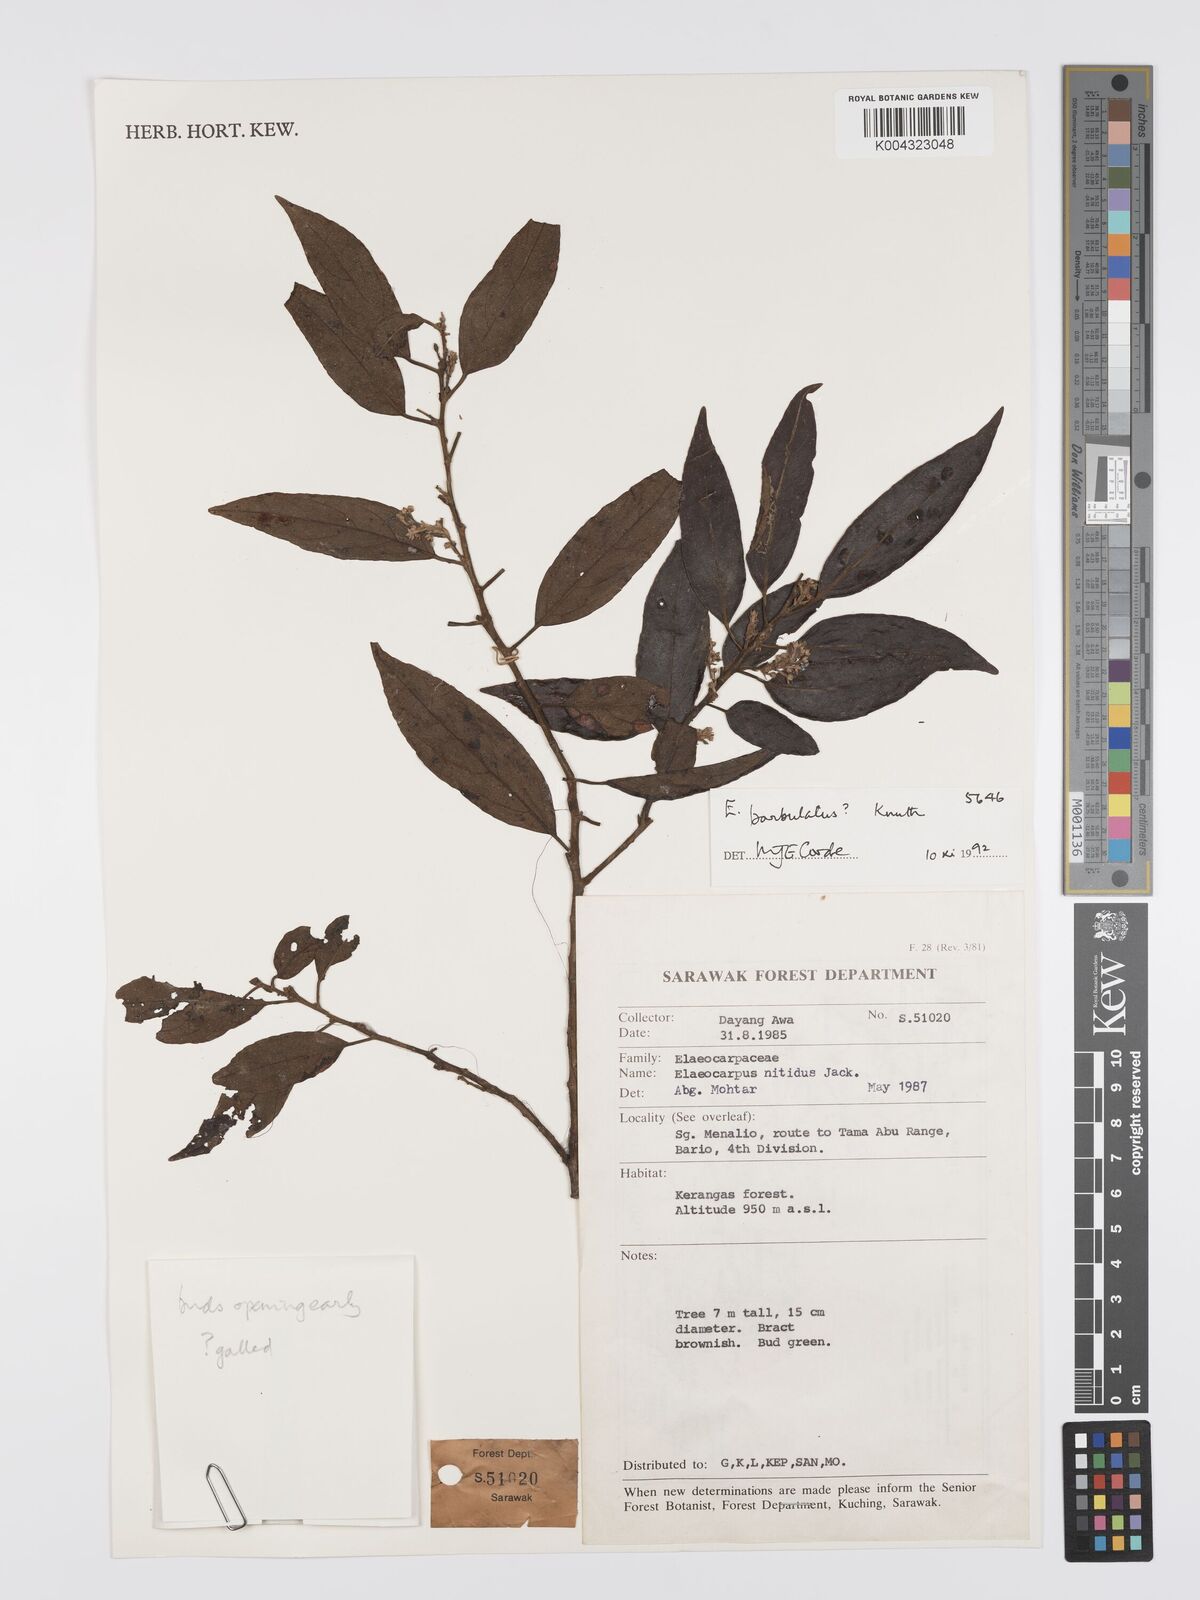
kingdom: Plantae
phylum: Tracheophyta
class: Magnoliopsida
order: Oxalidales
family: Elaeocarpaceae
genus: Elaeocarpus
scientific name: Elaeocarpus barbulatus
